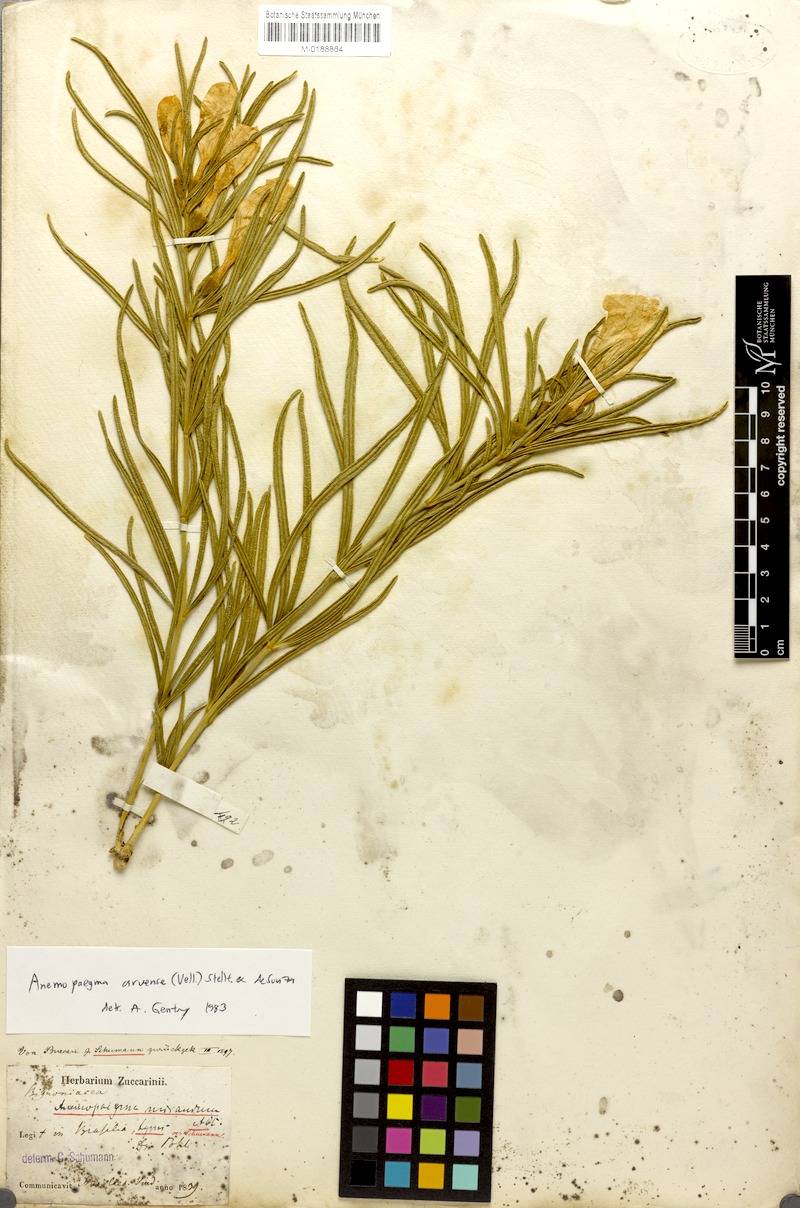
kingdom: Plantae
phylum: Tracheophyta
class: Magnoliopsida
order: Lamiales
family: Bignoniaceae
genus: Anemopaegma
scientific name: Anemopaegma arvense
